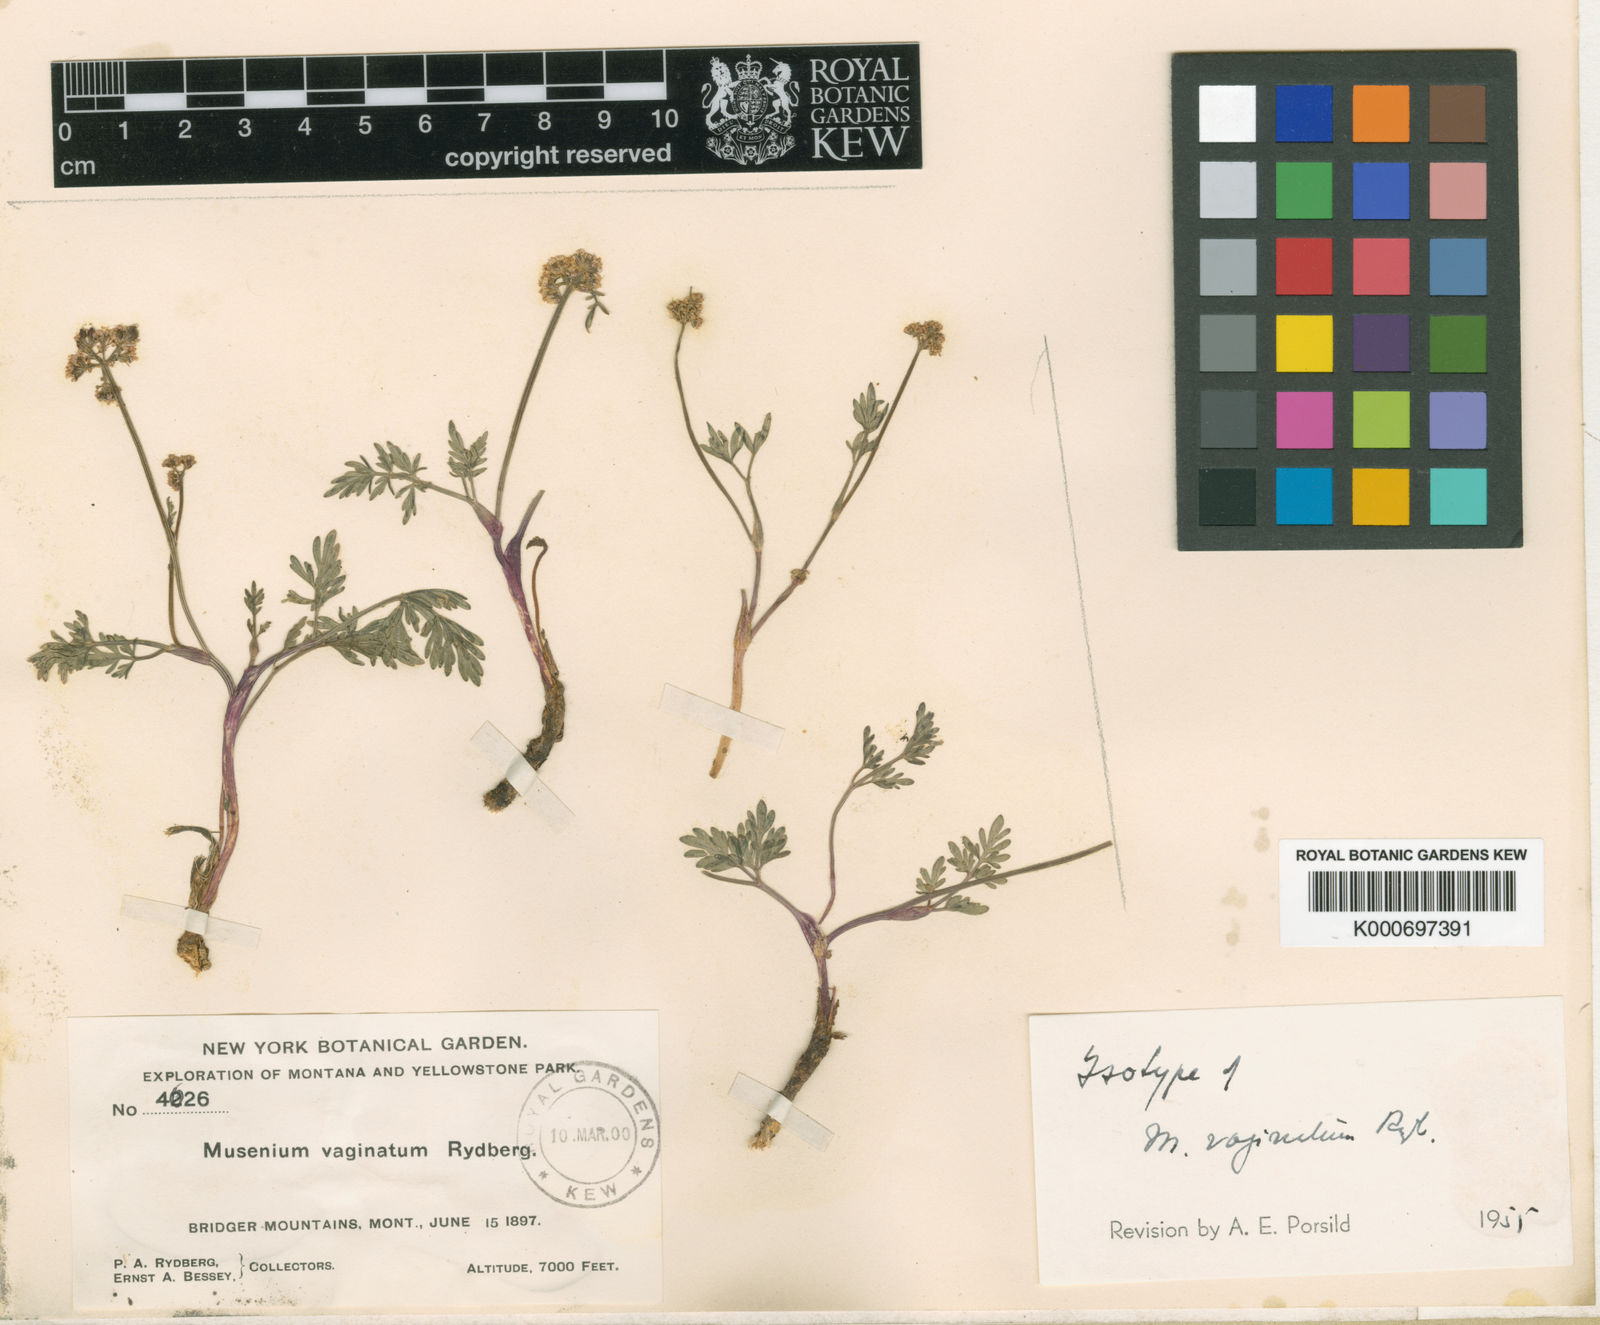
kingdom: Plantae
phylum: Tracheophyta
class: Magnoliopsida
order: Apiales
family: Apiaceae
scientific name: Apiaceae
